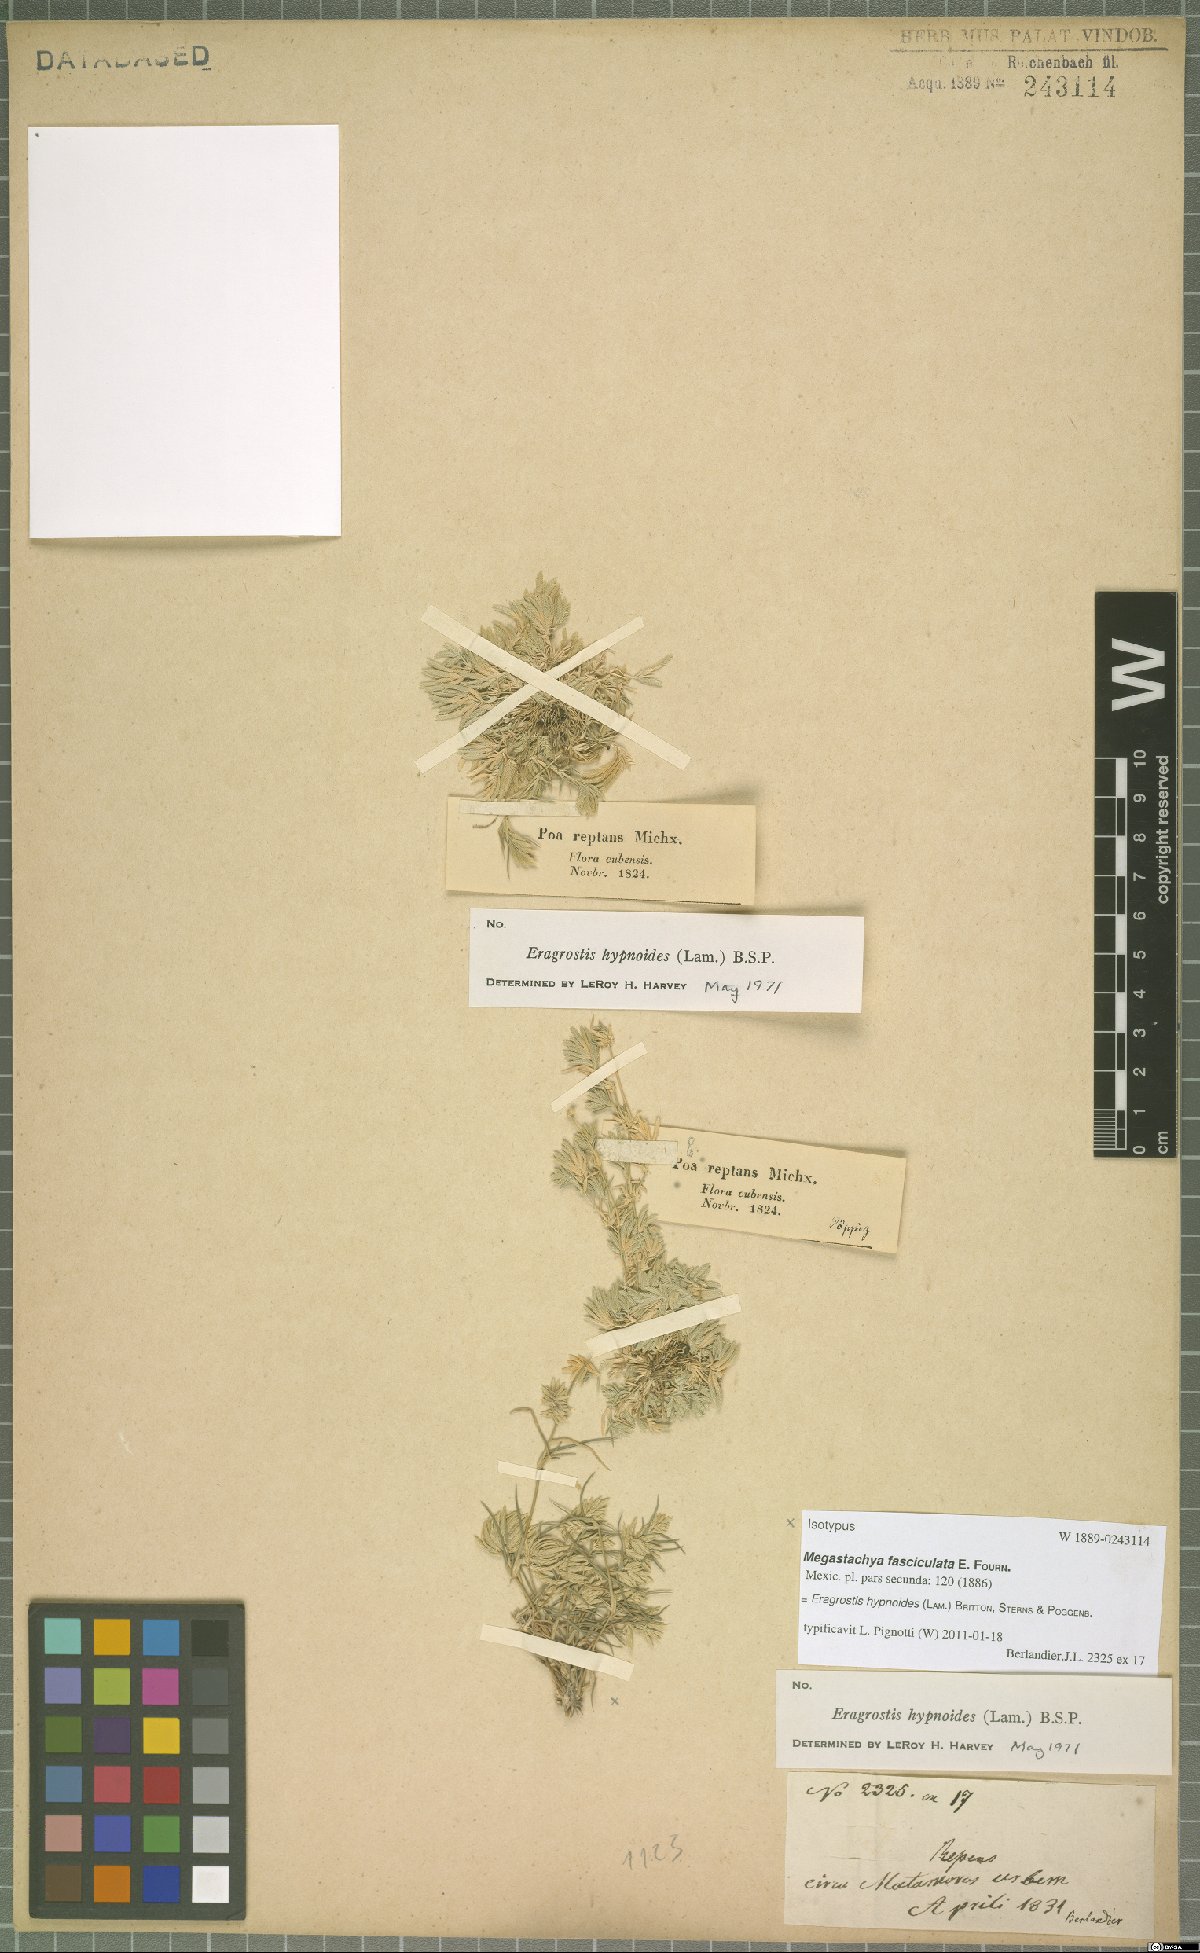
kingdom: Plantae
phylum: Tracheophyta
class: Liliopsida
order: Poales
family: Poaceae
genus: Eragrostis
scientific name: Eragrostis hypnoides
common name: Creeping love grass
